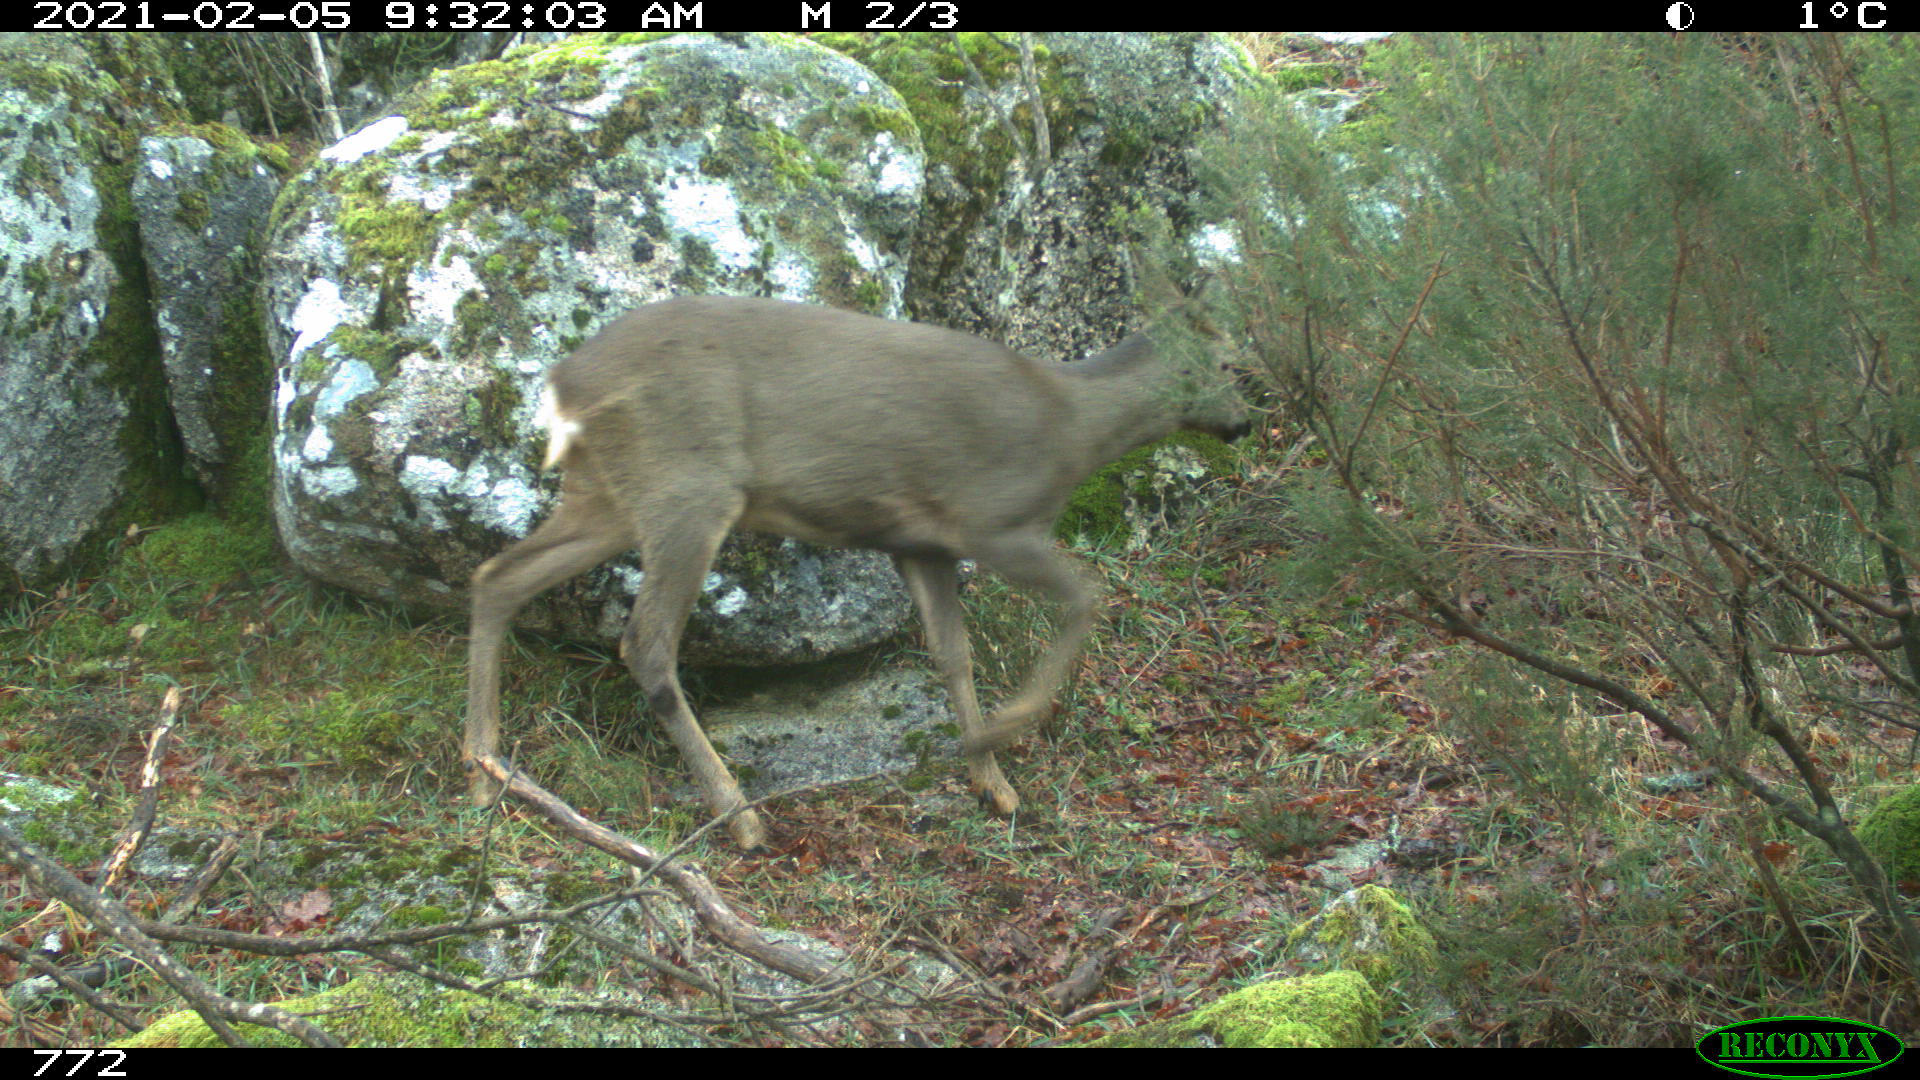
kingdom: Animalia
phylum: Chordata
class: Mammalia
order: Artiodactyla
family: Cervidae
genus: Capreolus
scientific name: Capreolus capreolus
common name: Western roe deer
